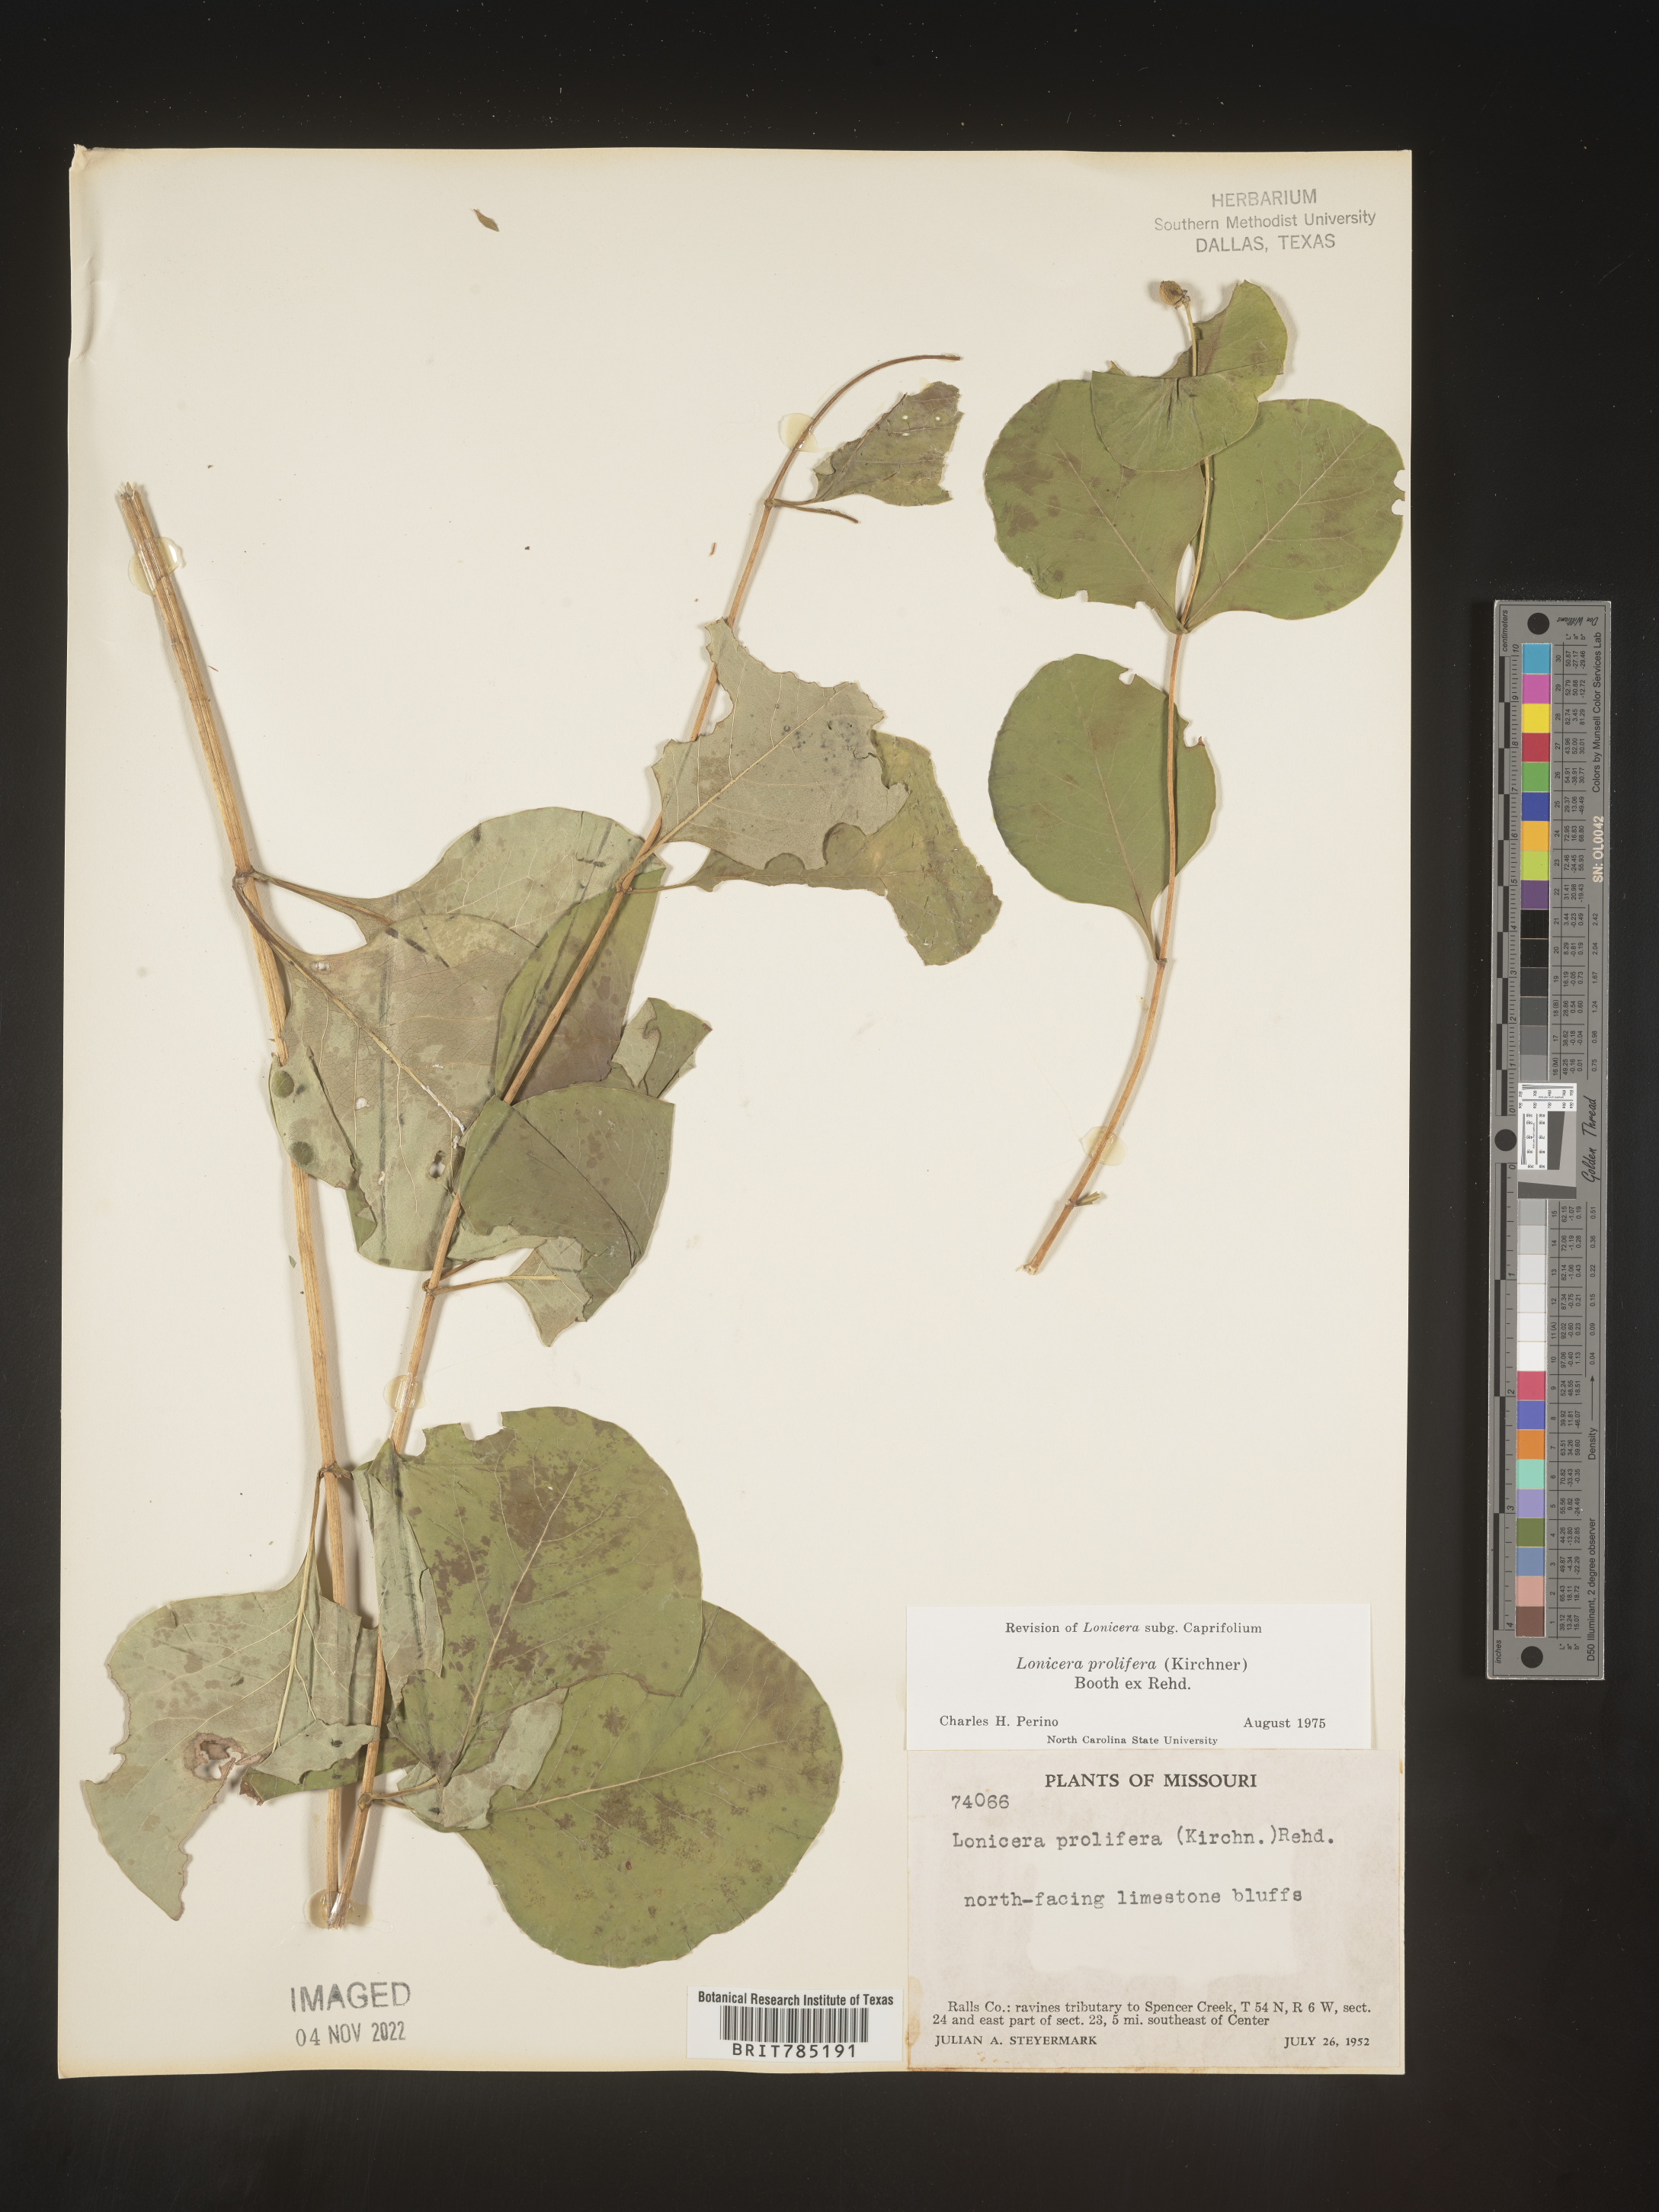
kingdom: Plantae
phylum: Tracheophyta
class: Magnoliopsida
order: Dipsacales
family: Caprifoliaceae
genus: Lonicera
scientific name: Lonicera
